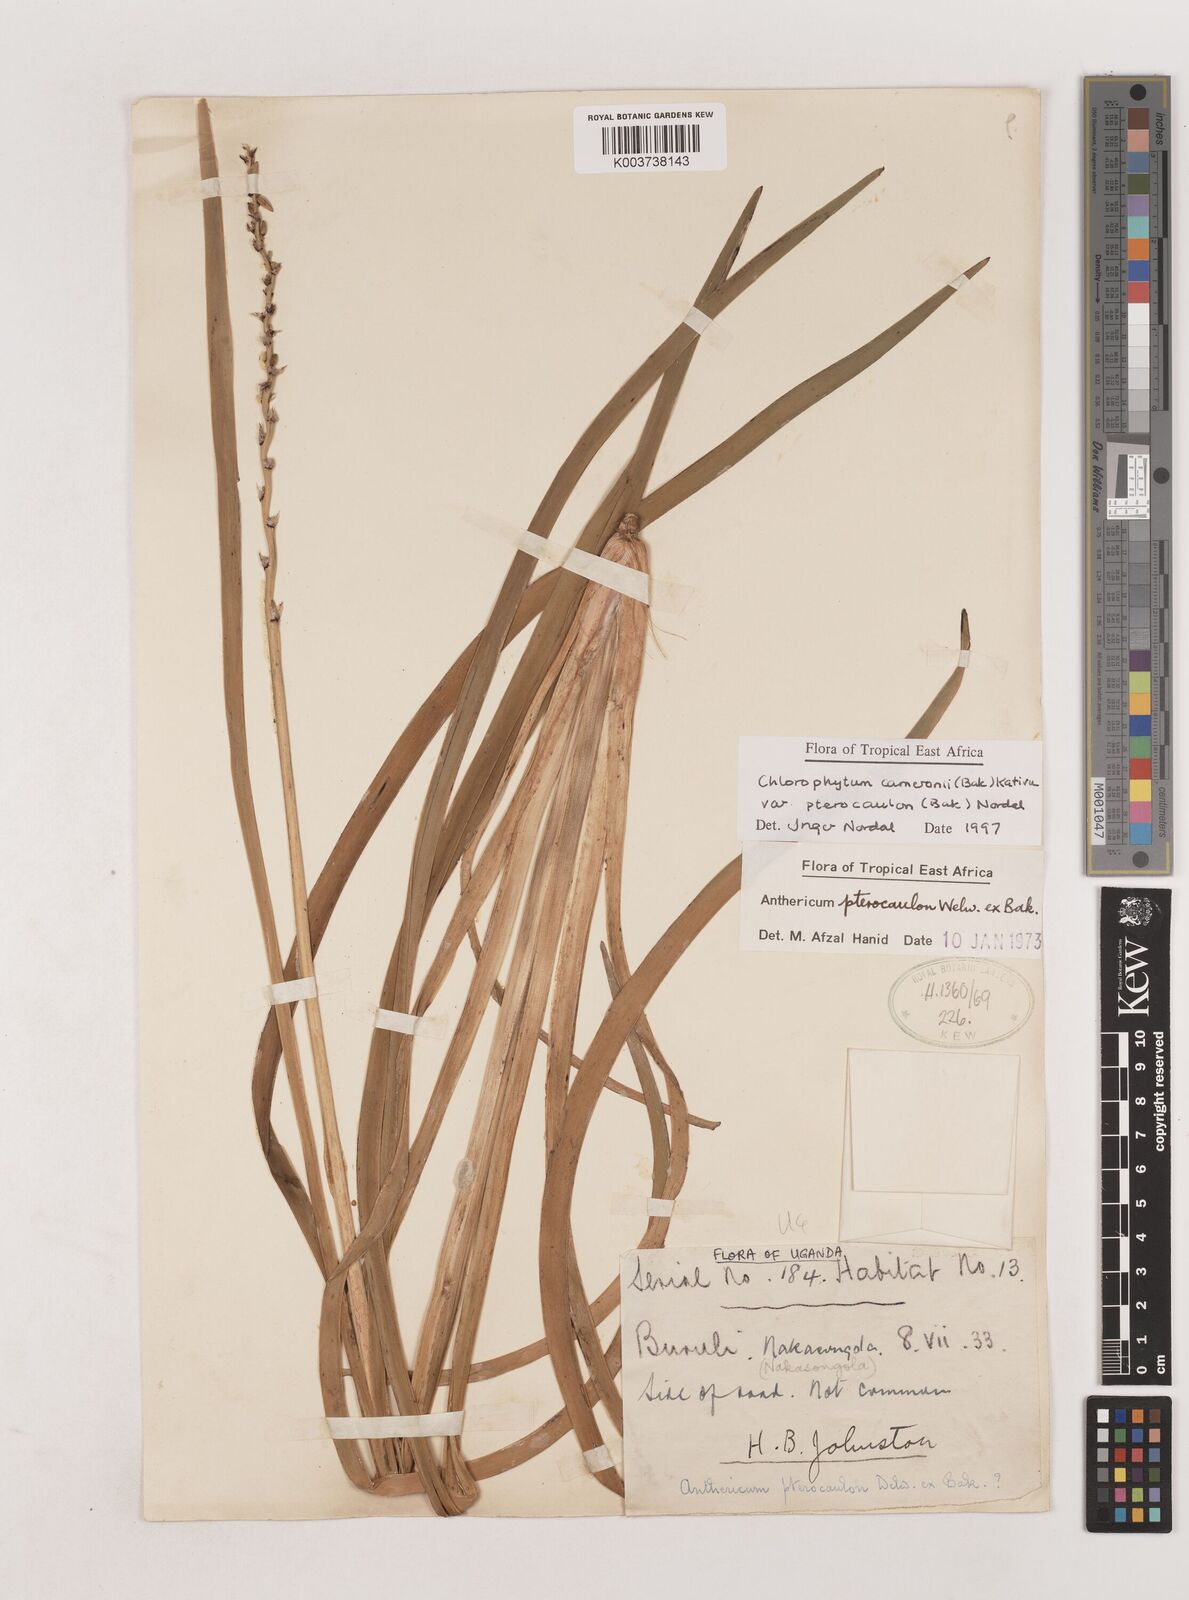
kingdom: Plantae
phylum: Tracheophyta
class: Liliopsida
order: Asparagales
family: Asparagaceae
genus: Chlorophytum
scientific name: Chlorophytum cameronii
